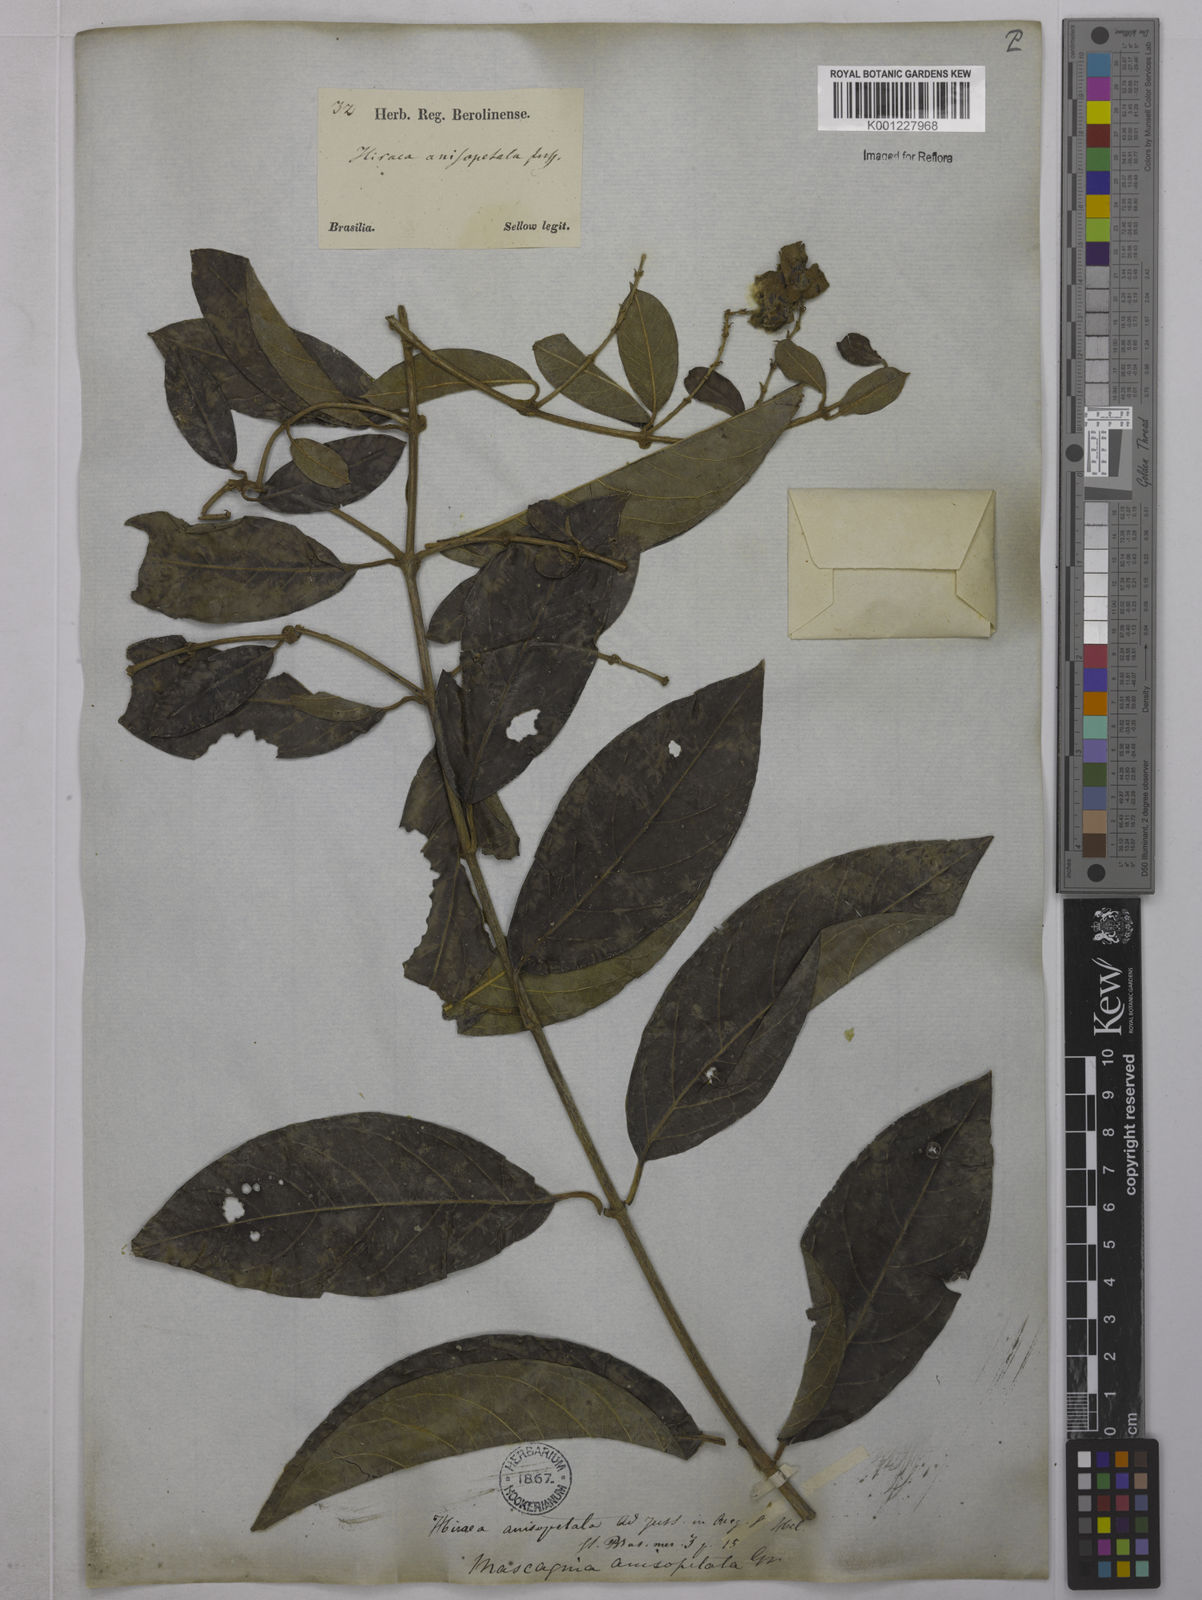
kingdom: Plantae
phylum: Tracheophyta
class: Magnoliopsida
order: Malpighiales
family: Malpighiaceae
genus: Alicia
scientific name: Alicia anisopetala
